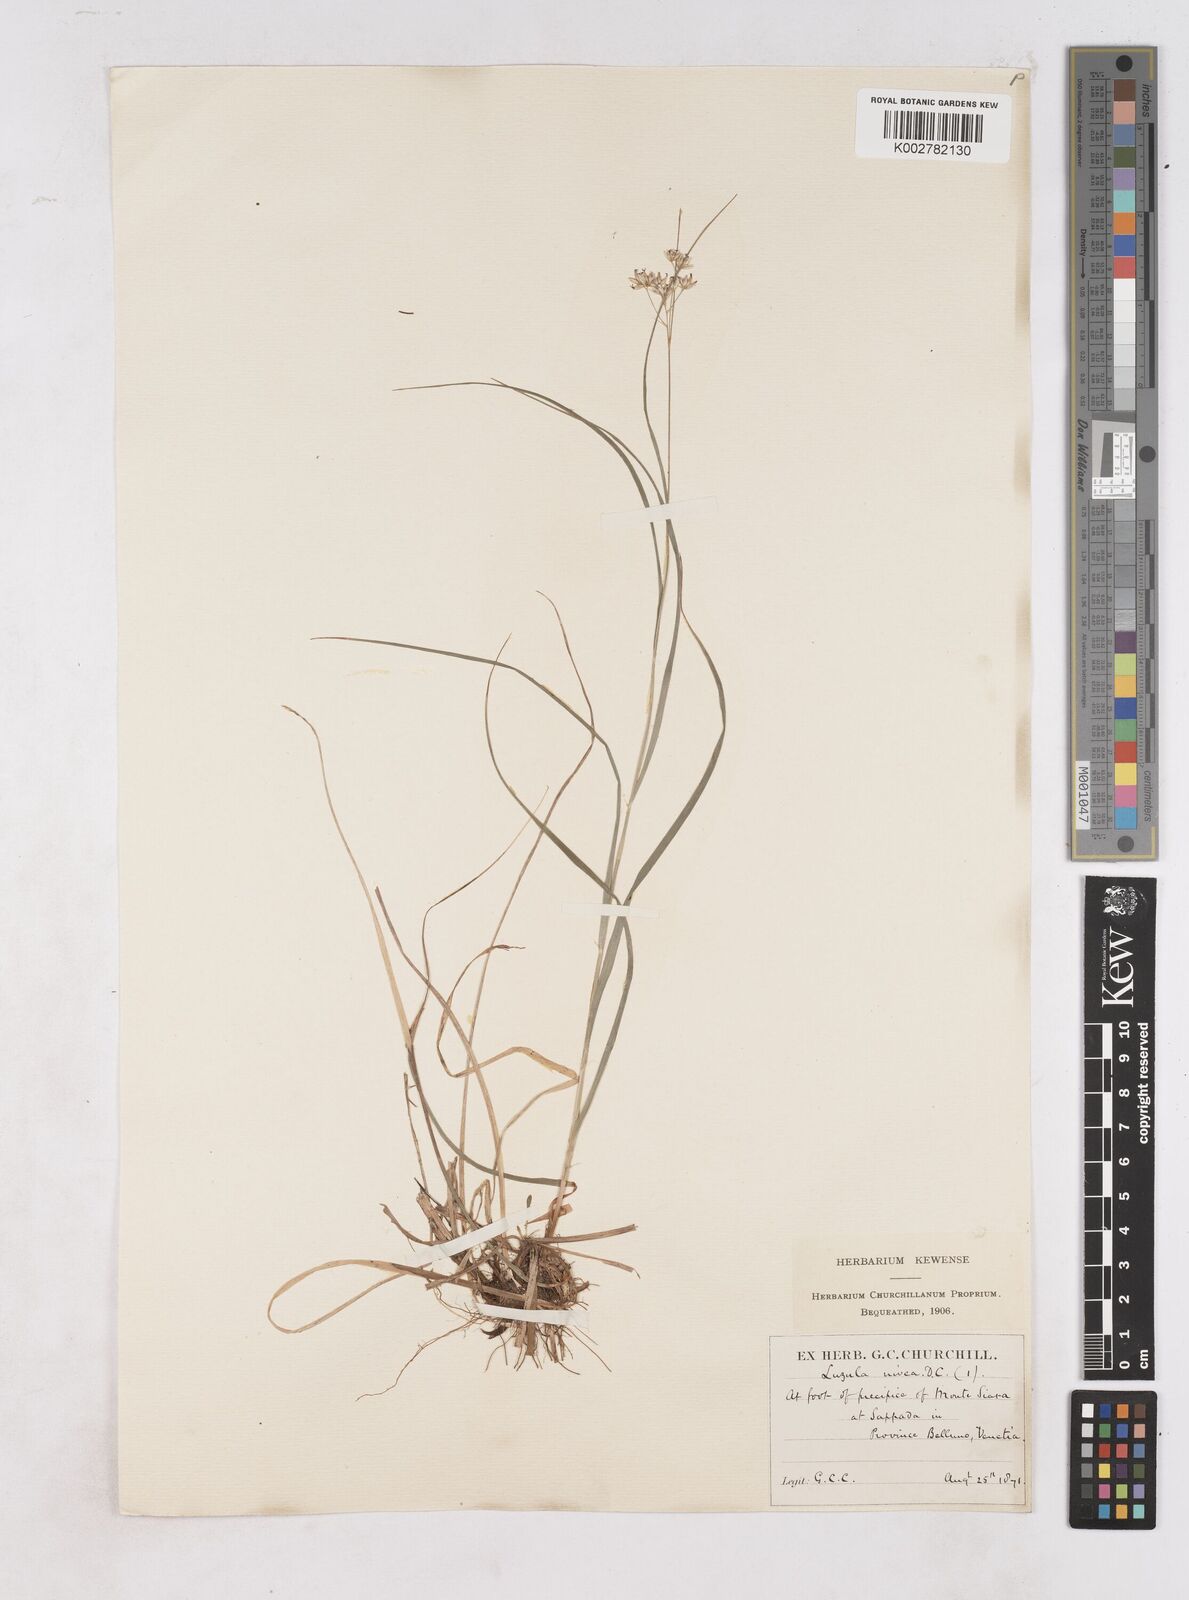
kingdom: Plantae
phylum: Tracheophyta
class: Liliopsida
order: Poales
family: Juncaceae
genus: Luzula
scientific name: Luzula nivea
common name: Snow-white wood-rush
